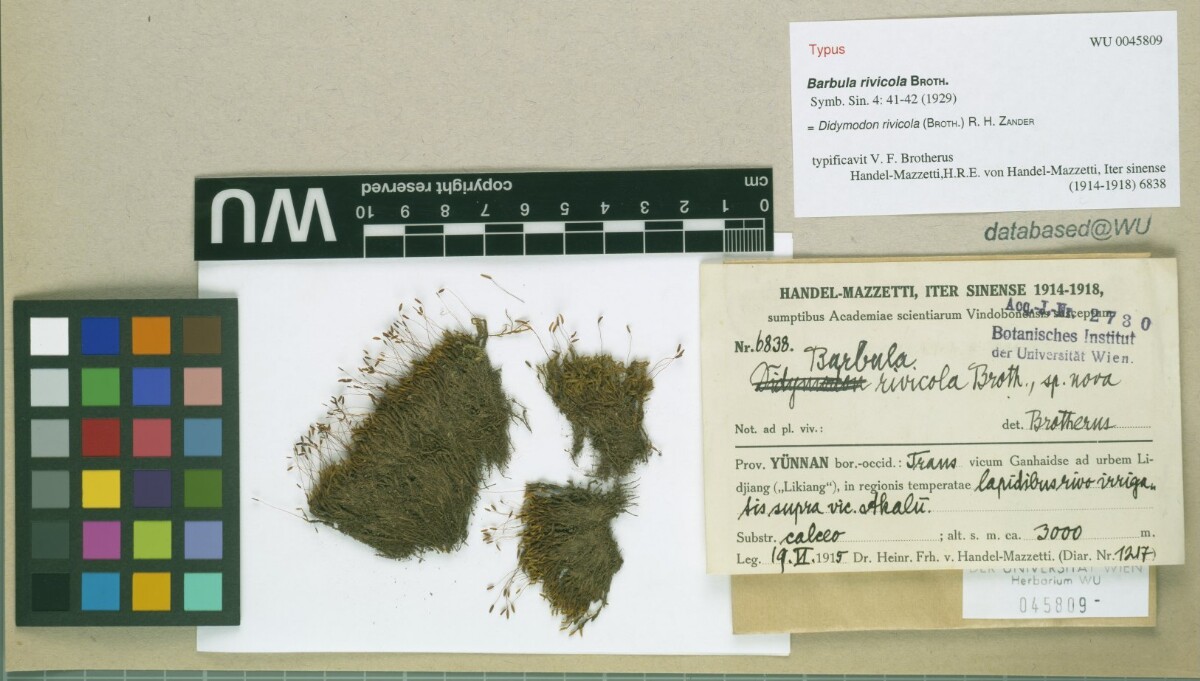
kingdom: Plantae
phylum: Bryophyta
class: Bryopsida
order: Pottiales
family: Pottiaceae
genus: Husnotiella
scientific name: Husnotiella rivicola
